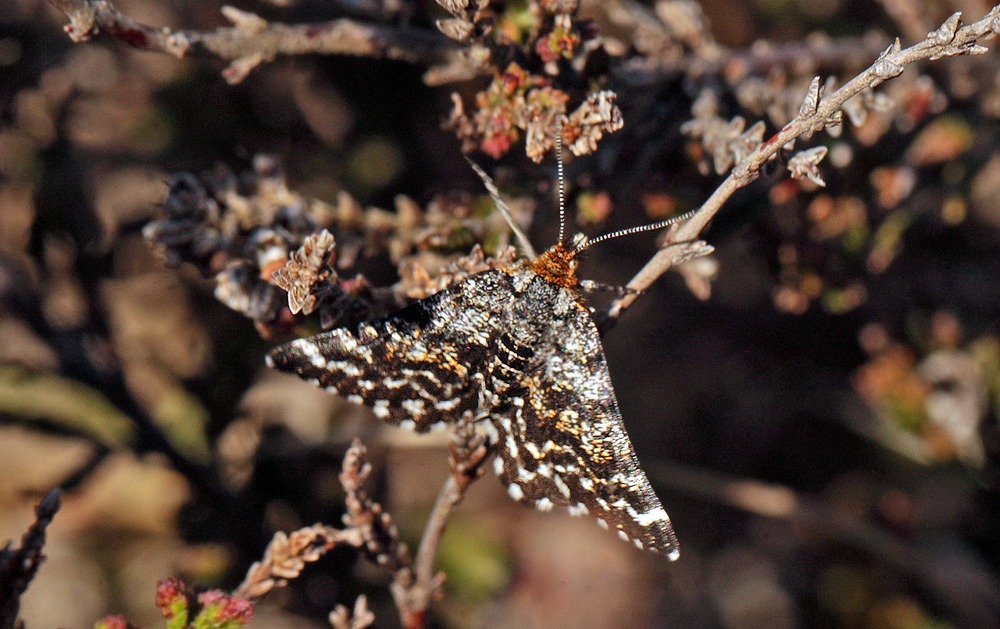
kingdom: Animalia
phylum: Arthropoda
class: Insecta
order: Lepidoptera
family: Geometridae
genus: Macaria
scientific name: Macaria carbonaria
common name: Melbærris-måler
